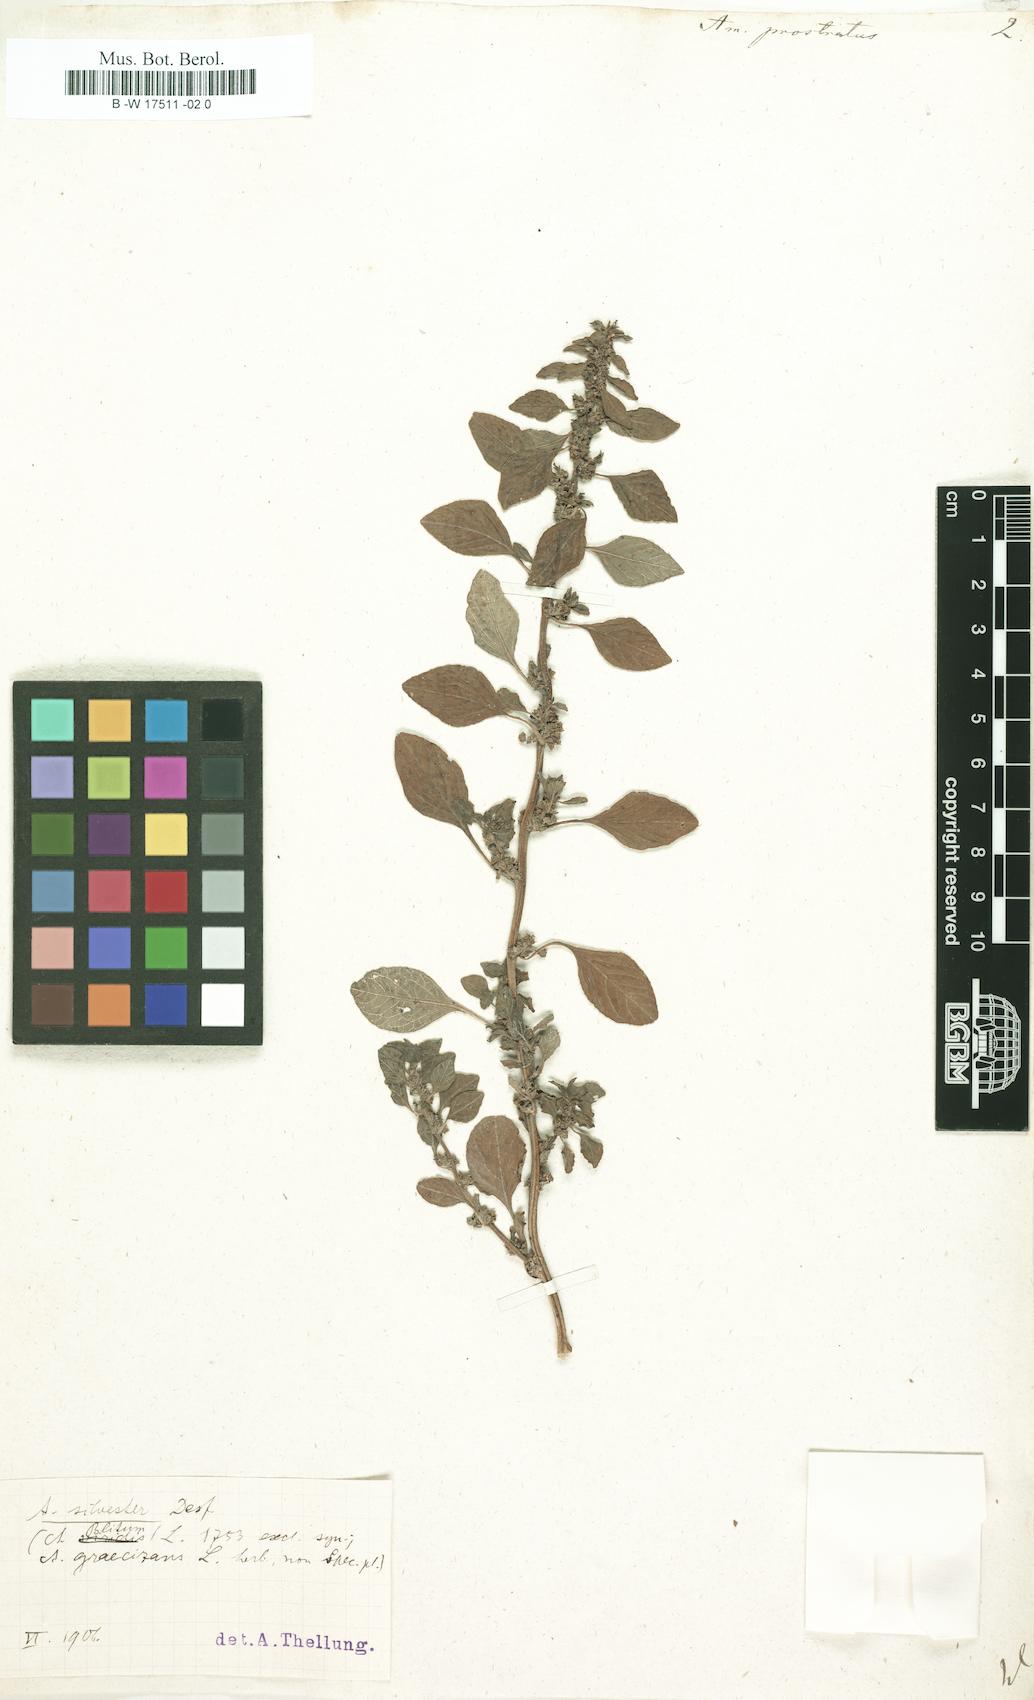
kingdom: Plantae
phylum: Tracheophyta
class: Magnoliopsida
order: Caryophyllales
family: Amaranthaceae
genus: Amaranthus
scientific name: Amaranthus deflexus
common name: Perennial pigweed
